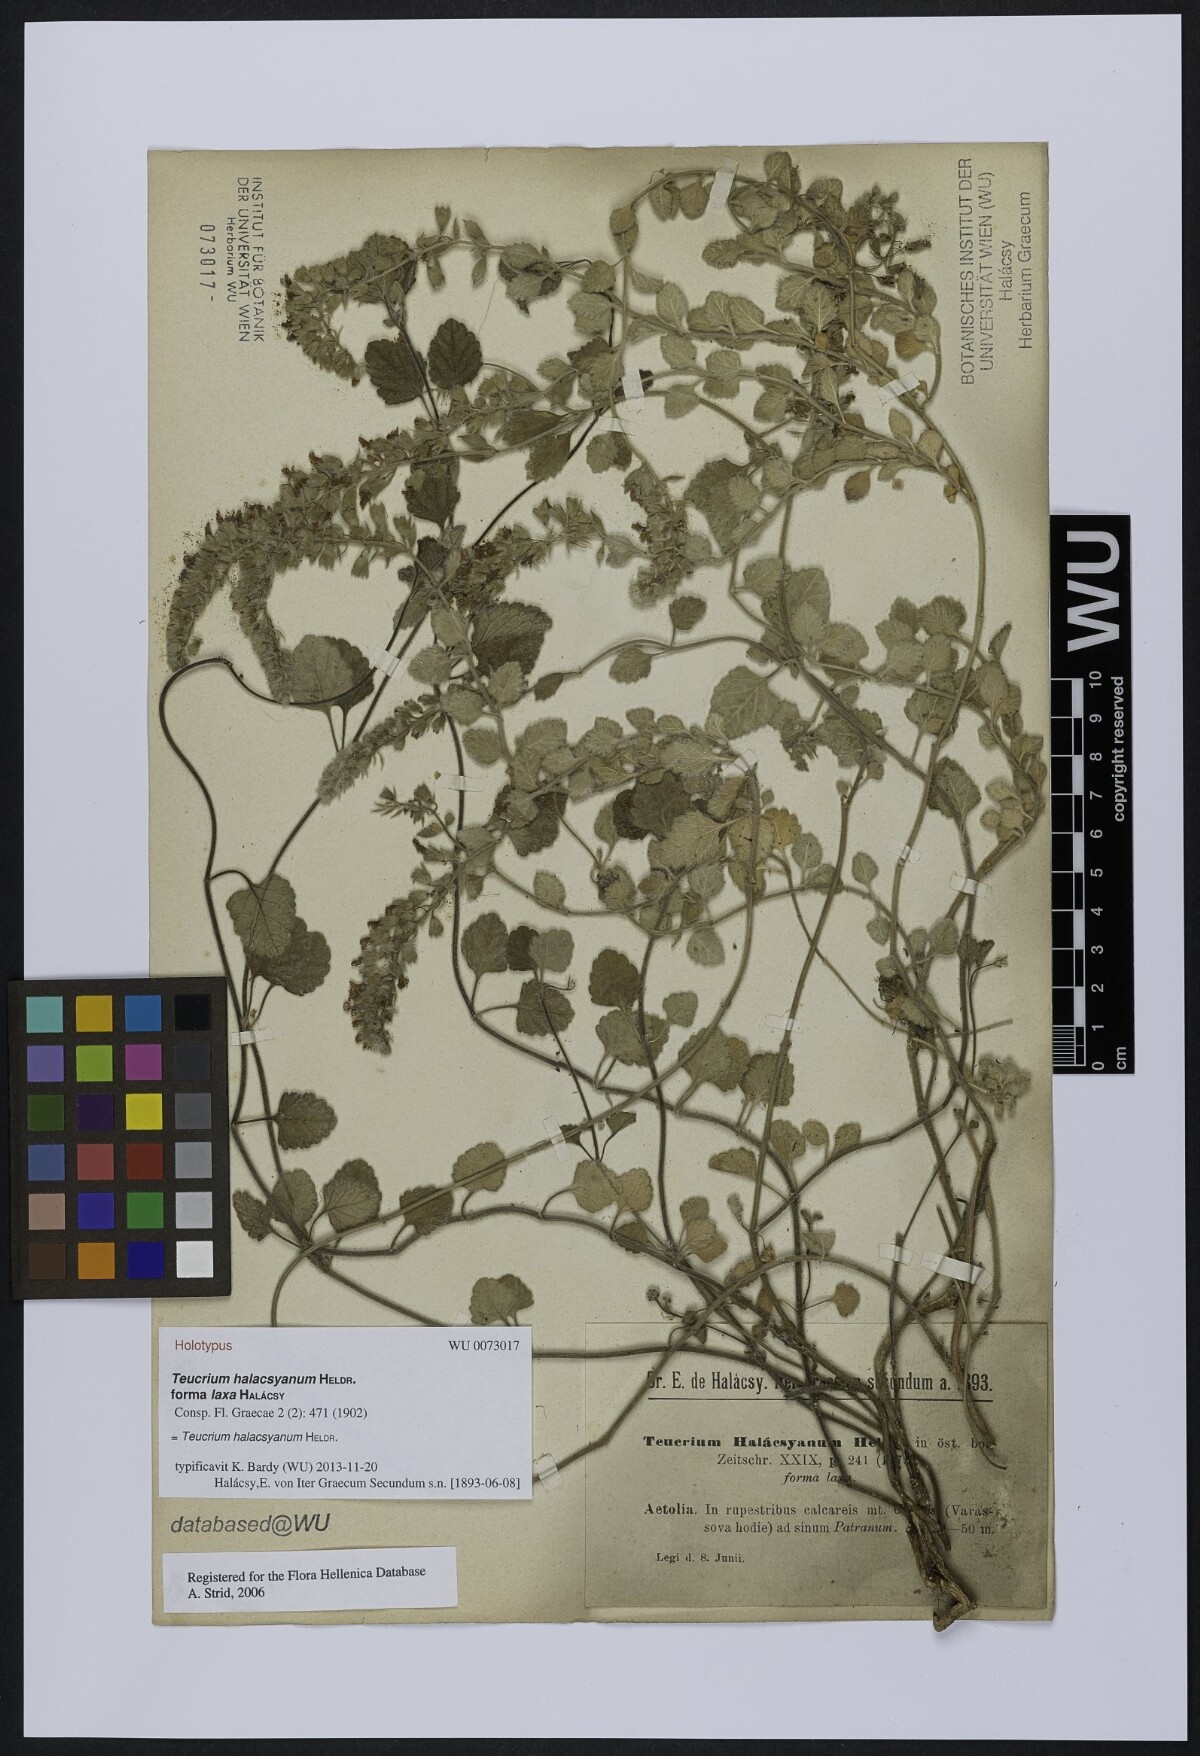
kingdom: Plantae
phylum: Tracheophyta
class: Magnoliopsida
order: Lamiales
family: Lamiaceae
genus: Teucrium
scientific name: Teucrium halacsyanum
